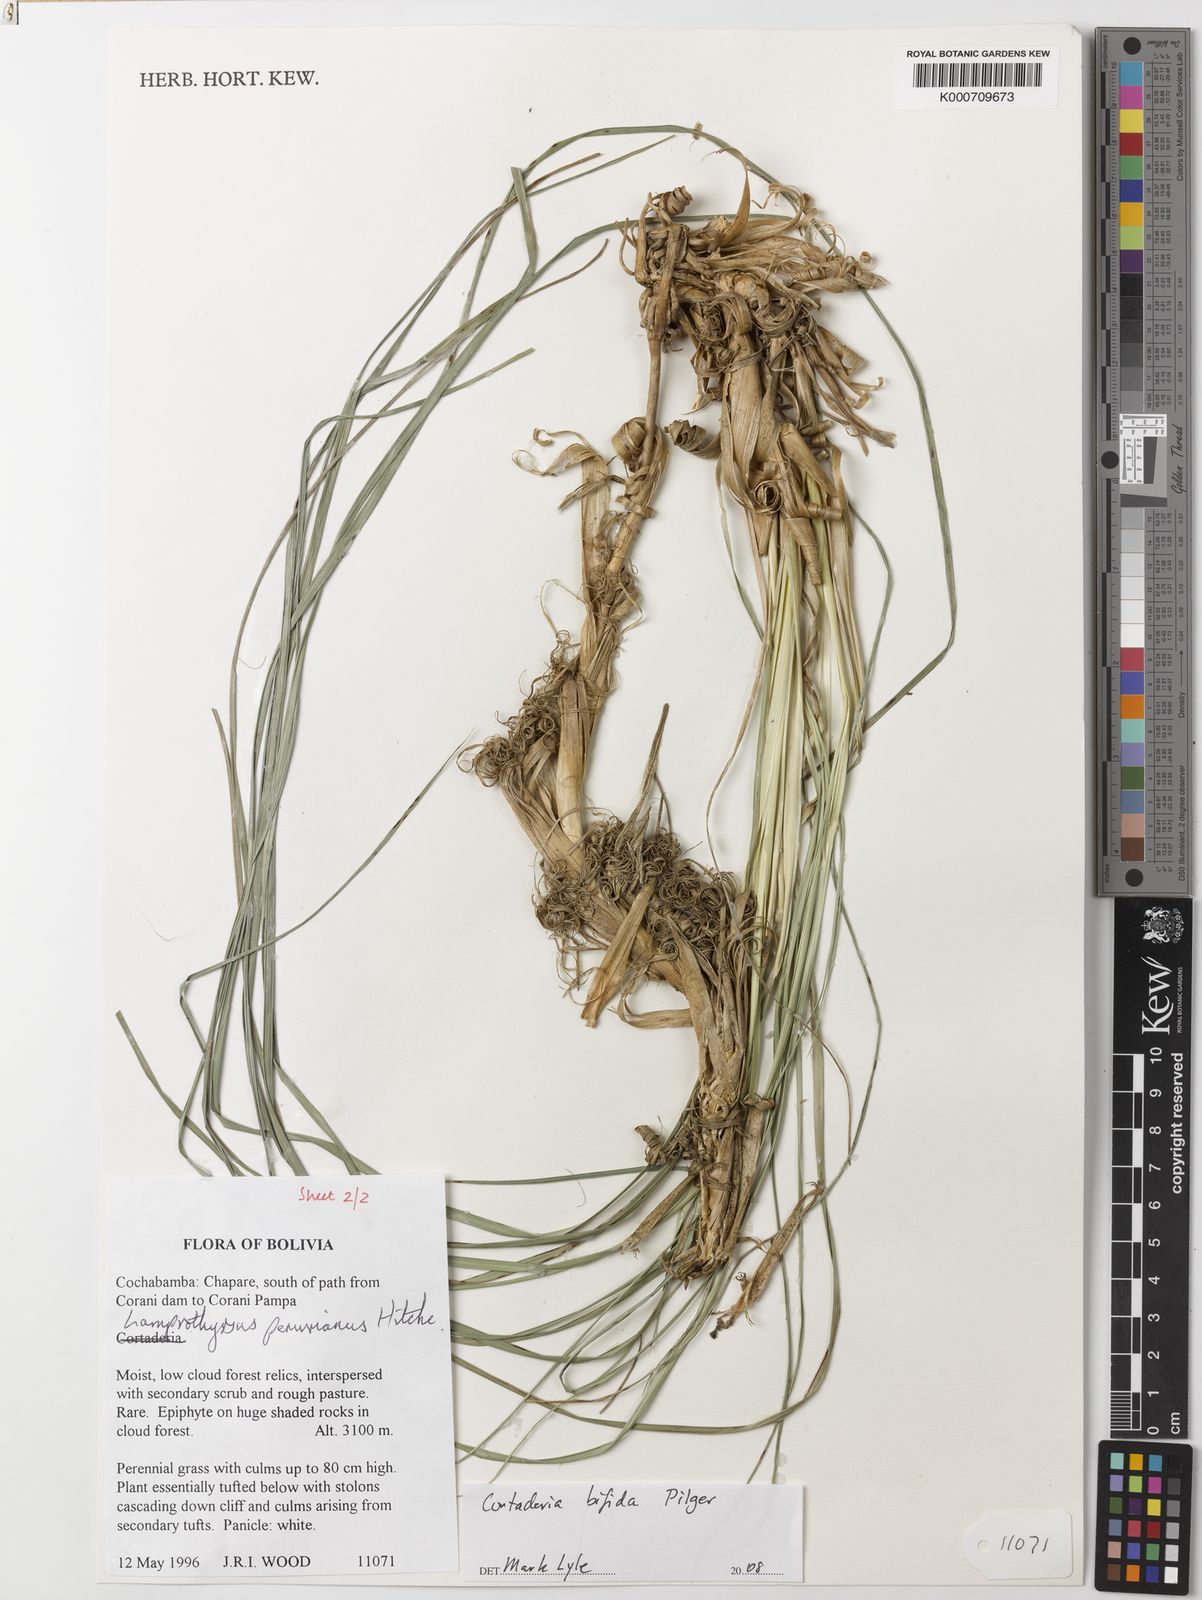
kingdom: Plantae
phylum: Tracheophyta
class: Liliopsida
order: Poales
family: Poaceae
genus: Cortaderia
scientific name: Cortaderia bifida
